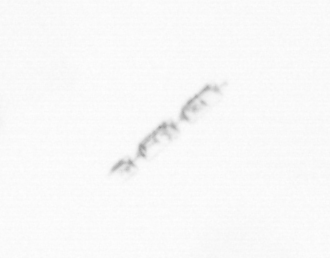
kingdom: Chromista
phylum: Ochrophyta
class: Bacillariophyceae
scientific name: Bacillariophyceae
